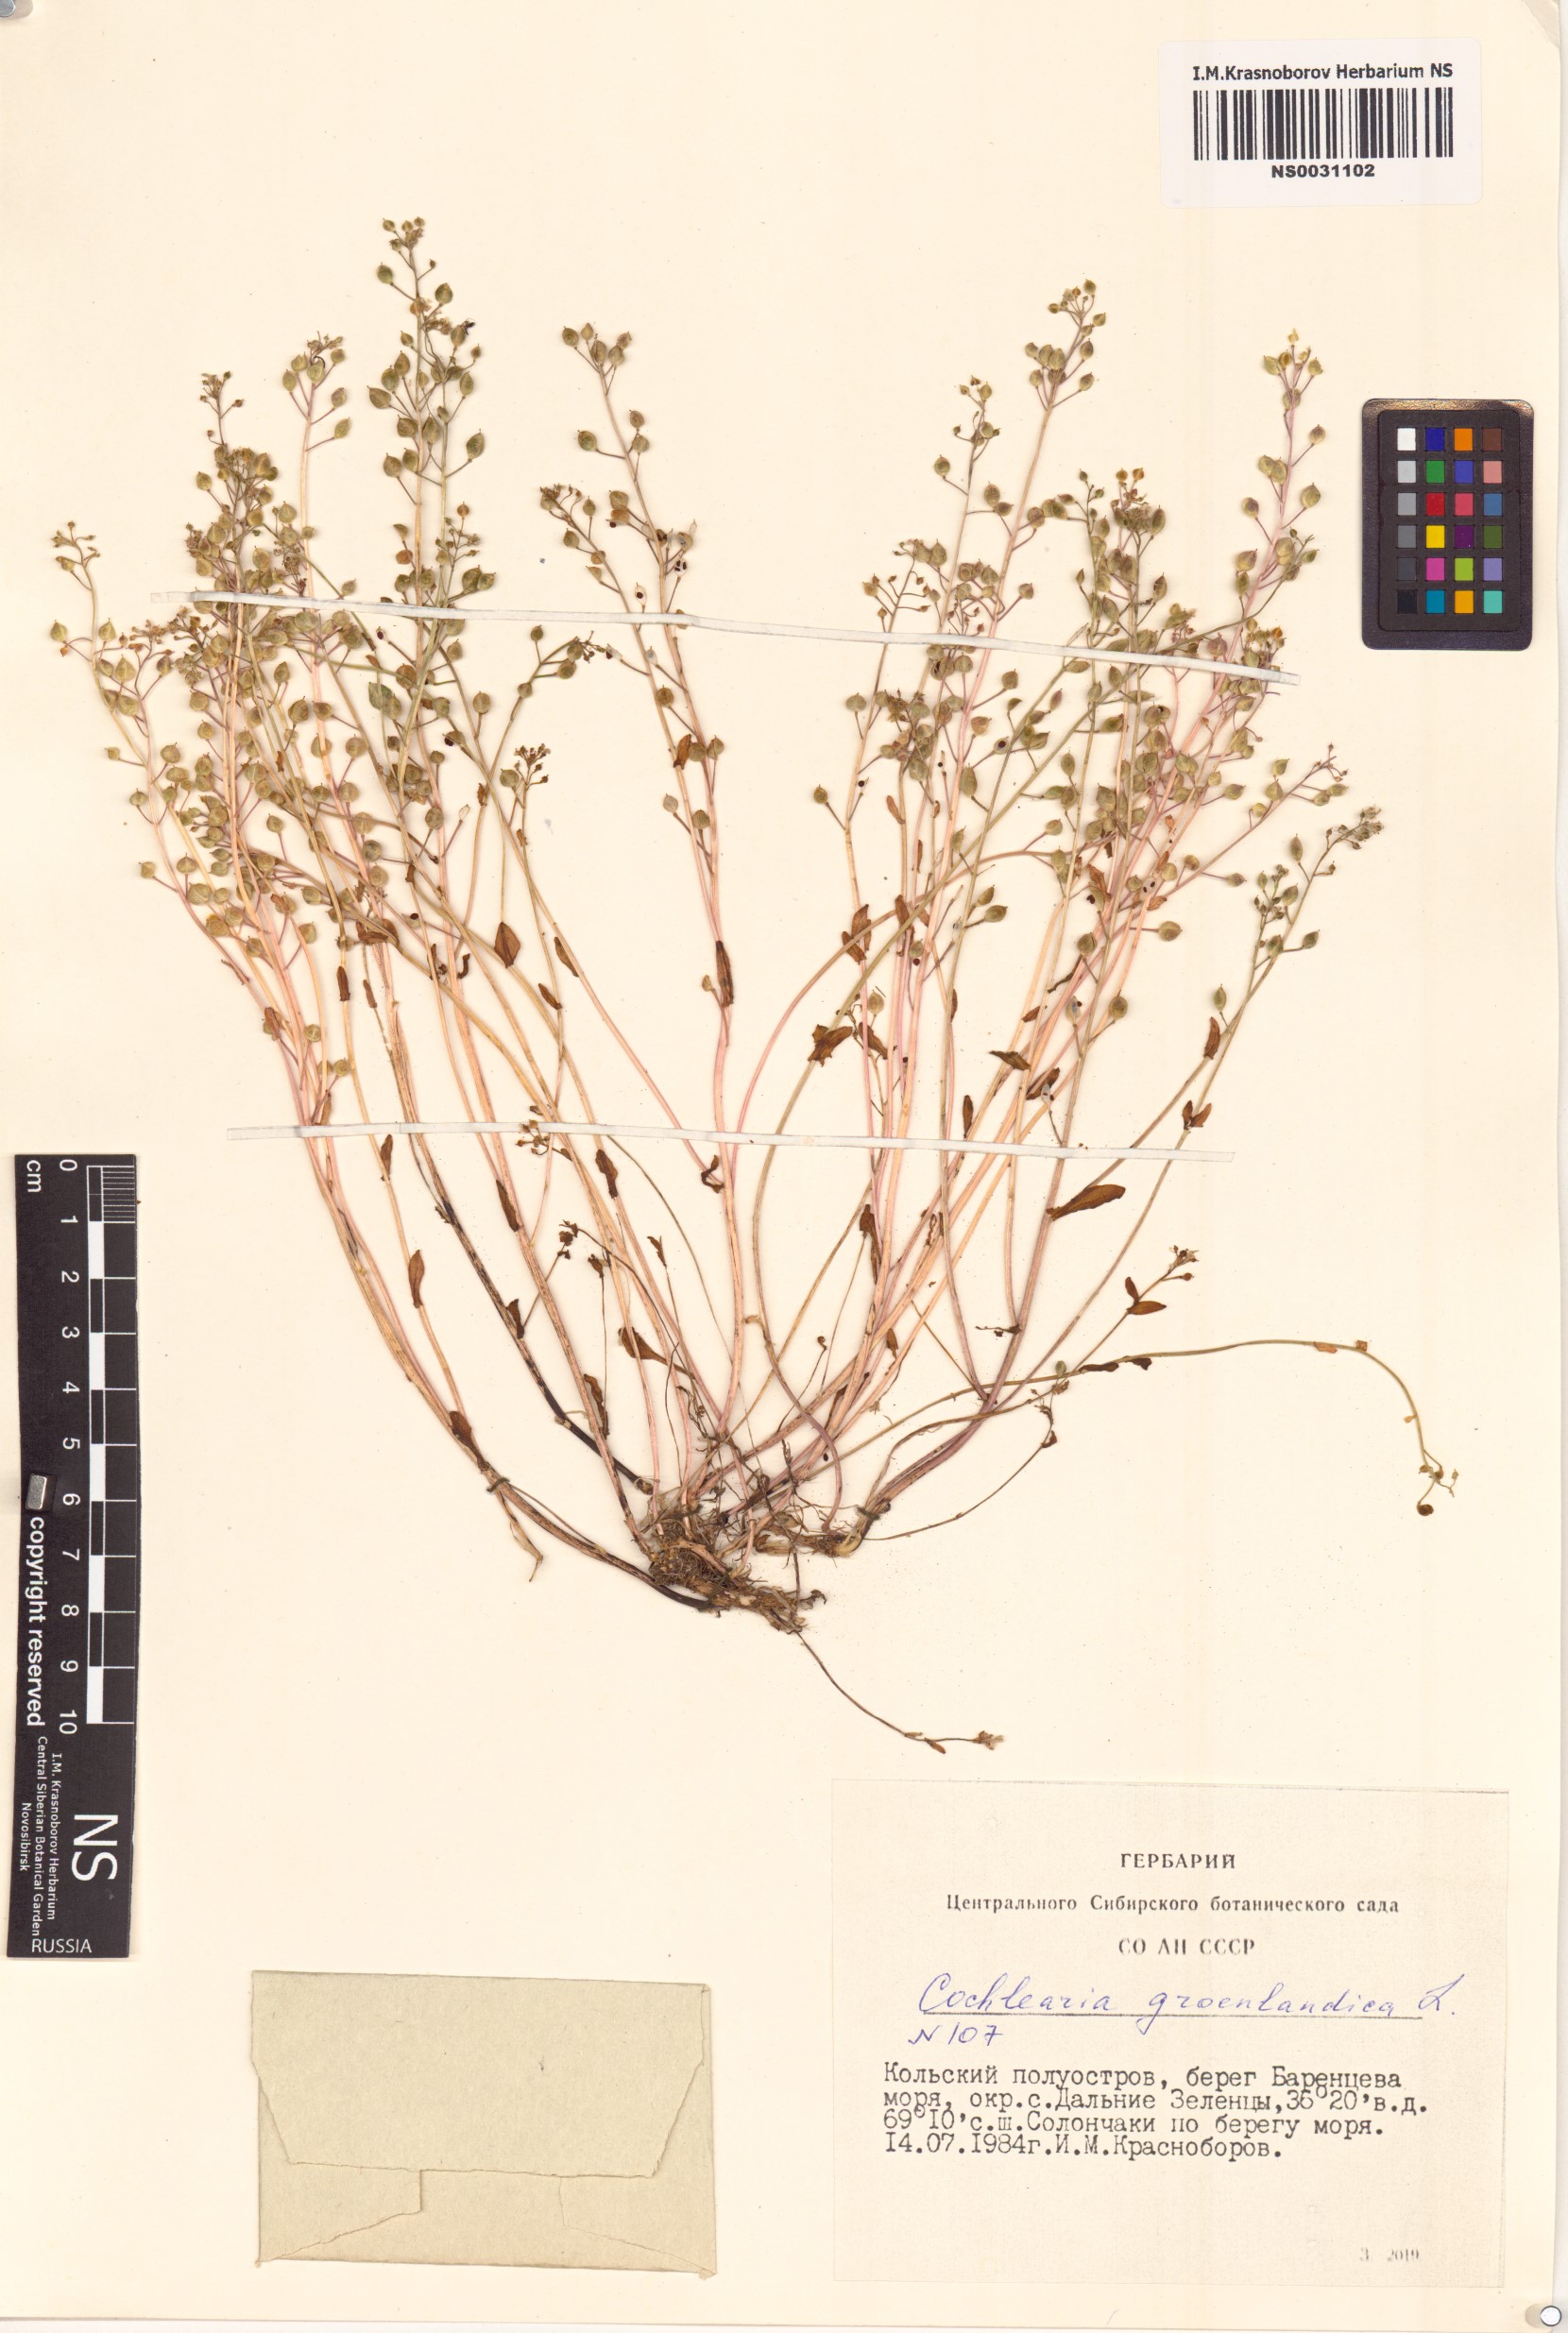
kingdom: Plantae
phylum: Tracheophyta
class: Magnoliopsida
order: Brassicales
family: Brassicaceae
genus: Cochlearia
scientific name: Cochlearia groenlandica
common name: Danish scurvygrass
